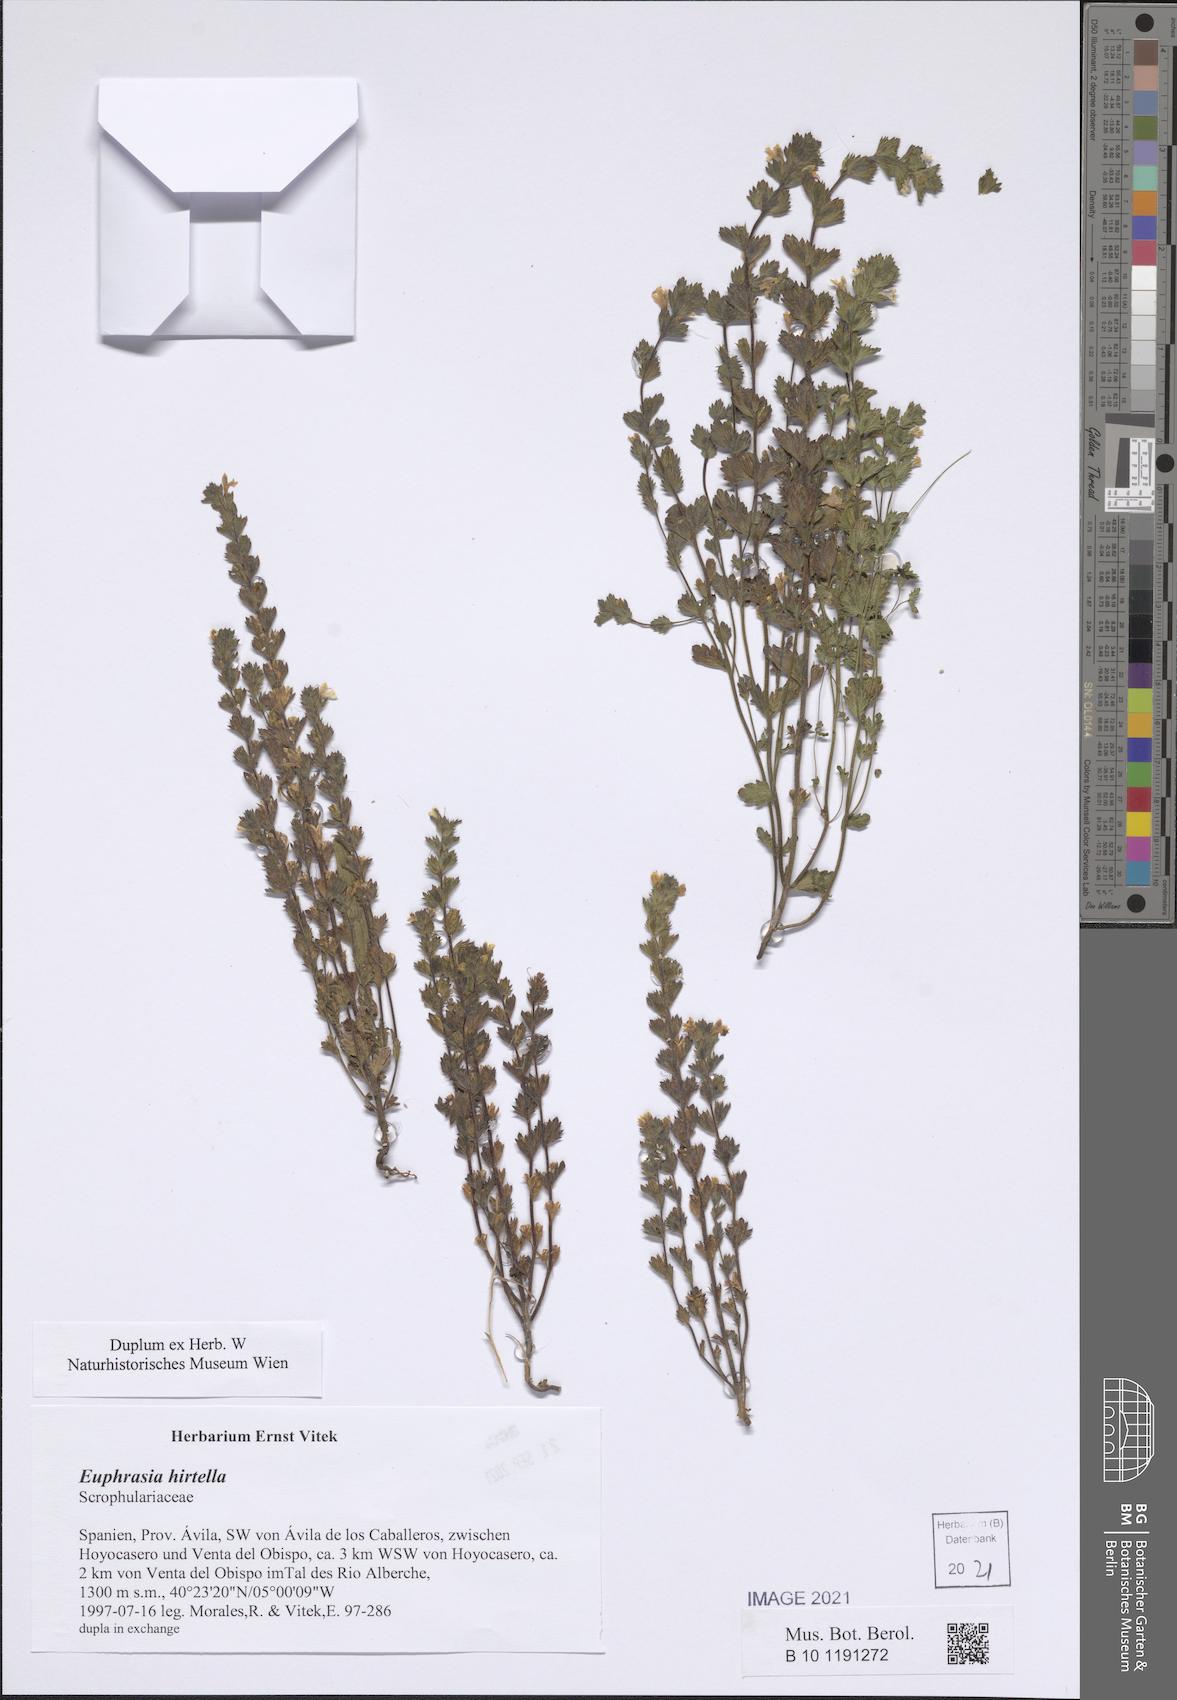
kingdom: Plantae
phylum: Tracheophyta
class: Magnoliopsida
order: Lamiales
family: Orobanchaceae
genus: Euphrasia
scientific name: Euphrasia hirtella
